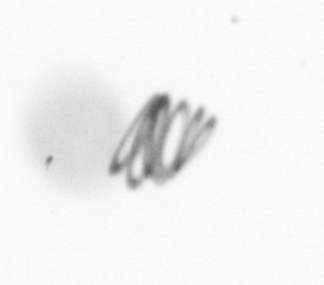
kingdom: Chromista
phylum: Ochrophyta
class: Bacillariophyceae
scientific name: Bacillariophyceae
